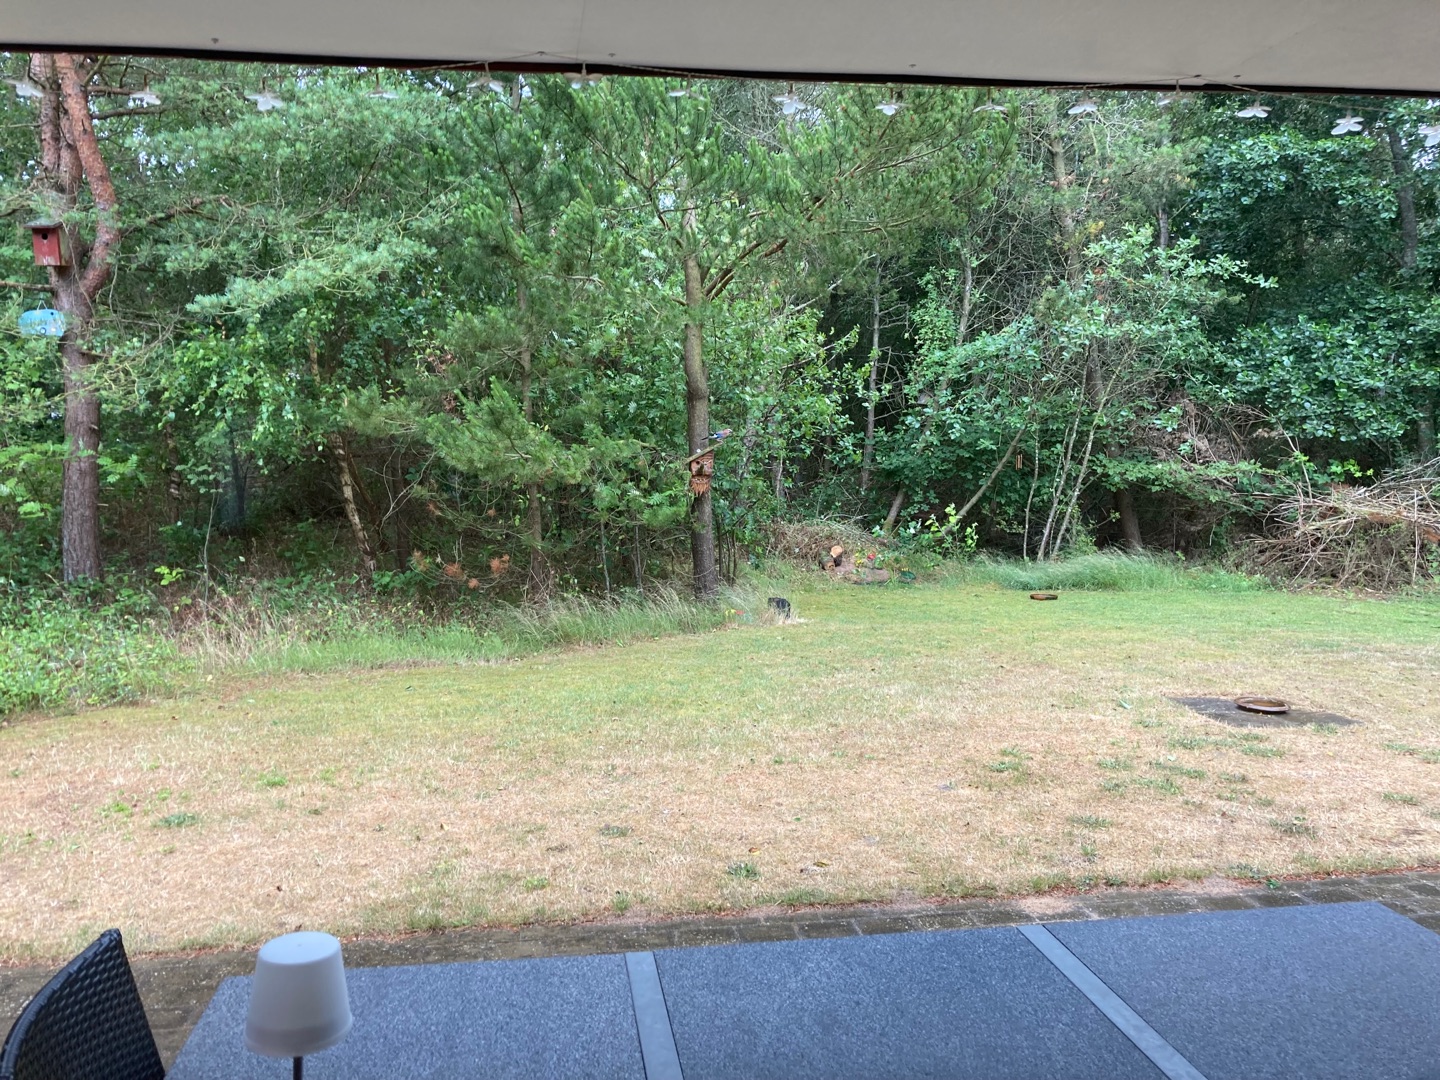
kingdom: Animalia
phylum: Chordata
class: Aves
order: Passeriformes
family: Corvidae
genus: Garrulus
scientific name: Garrulus glandarius
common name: Skovskade
